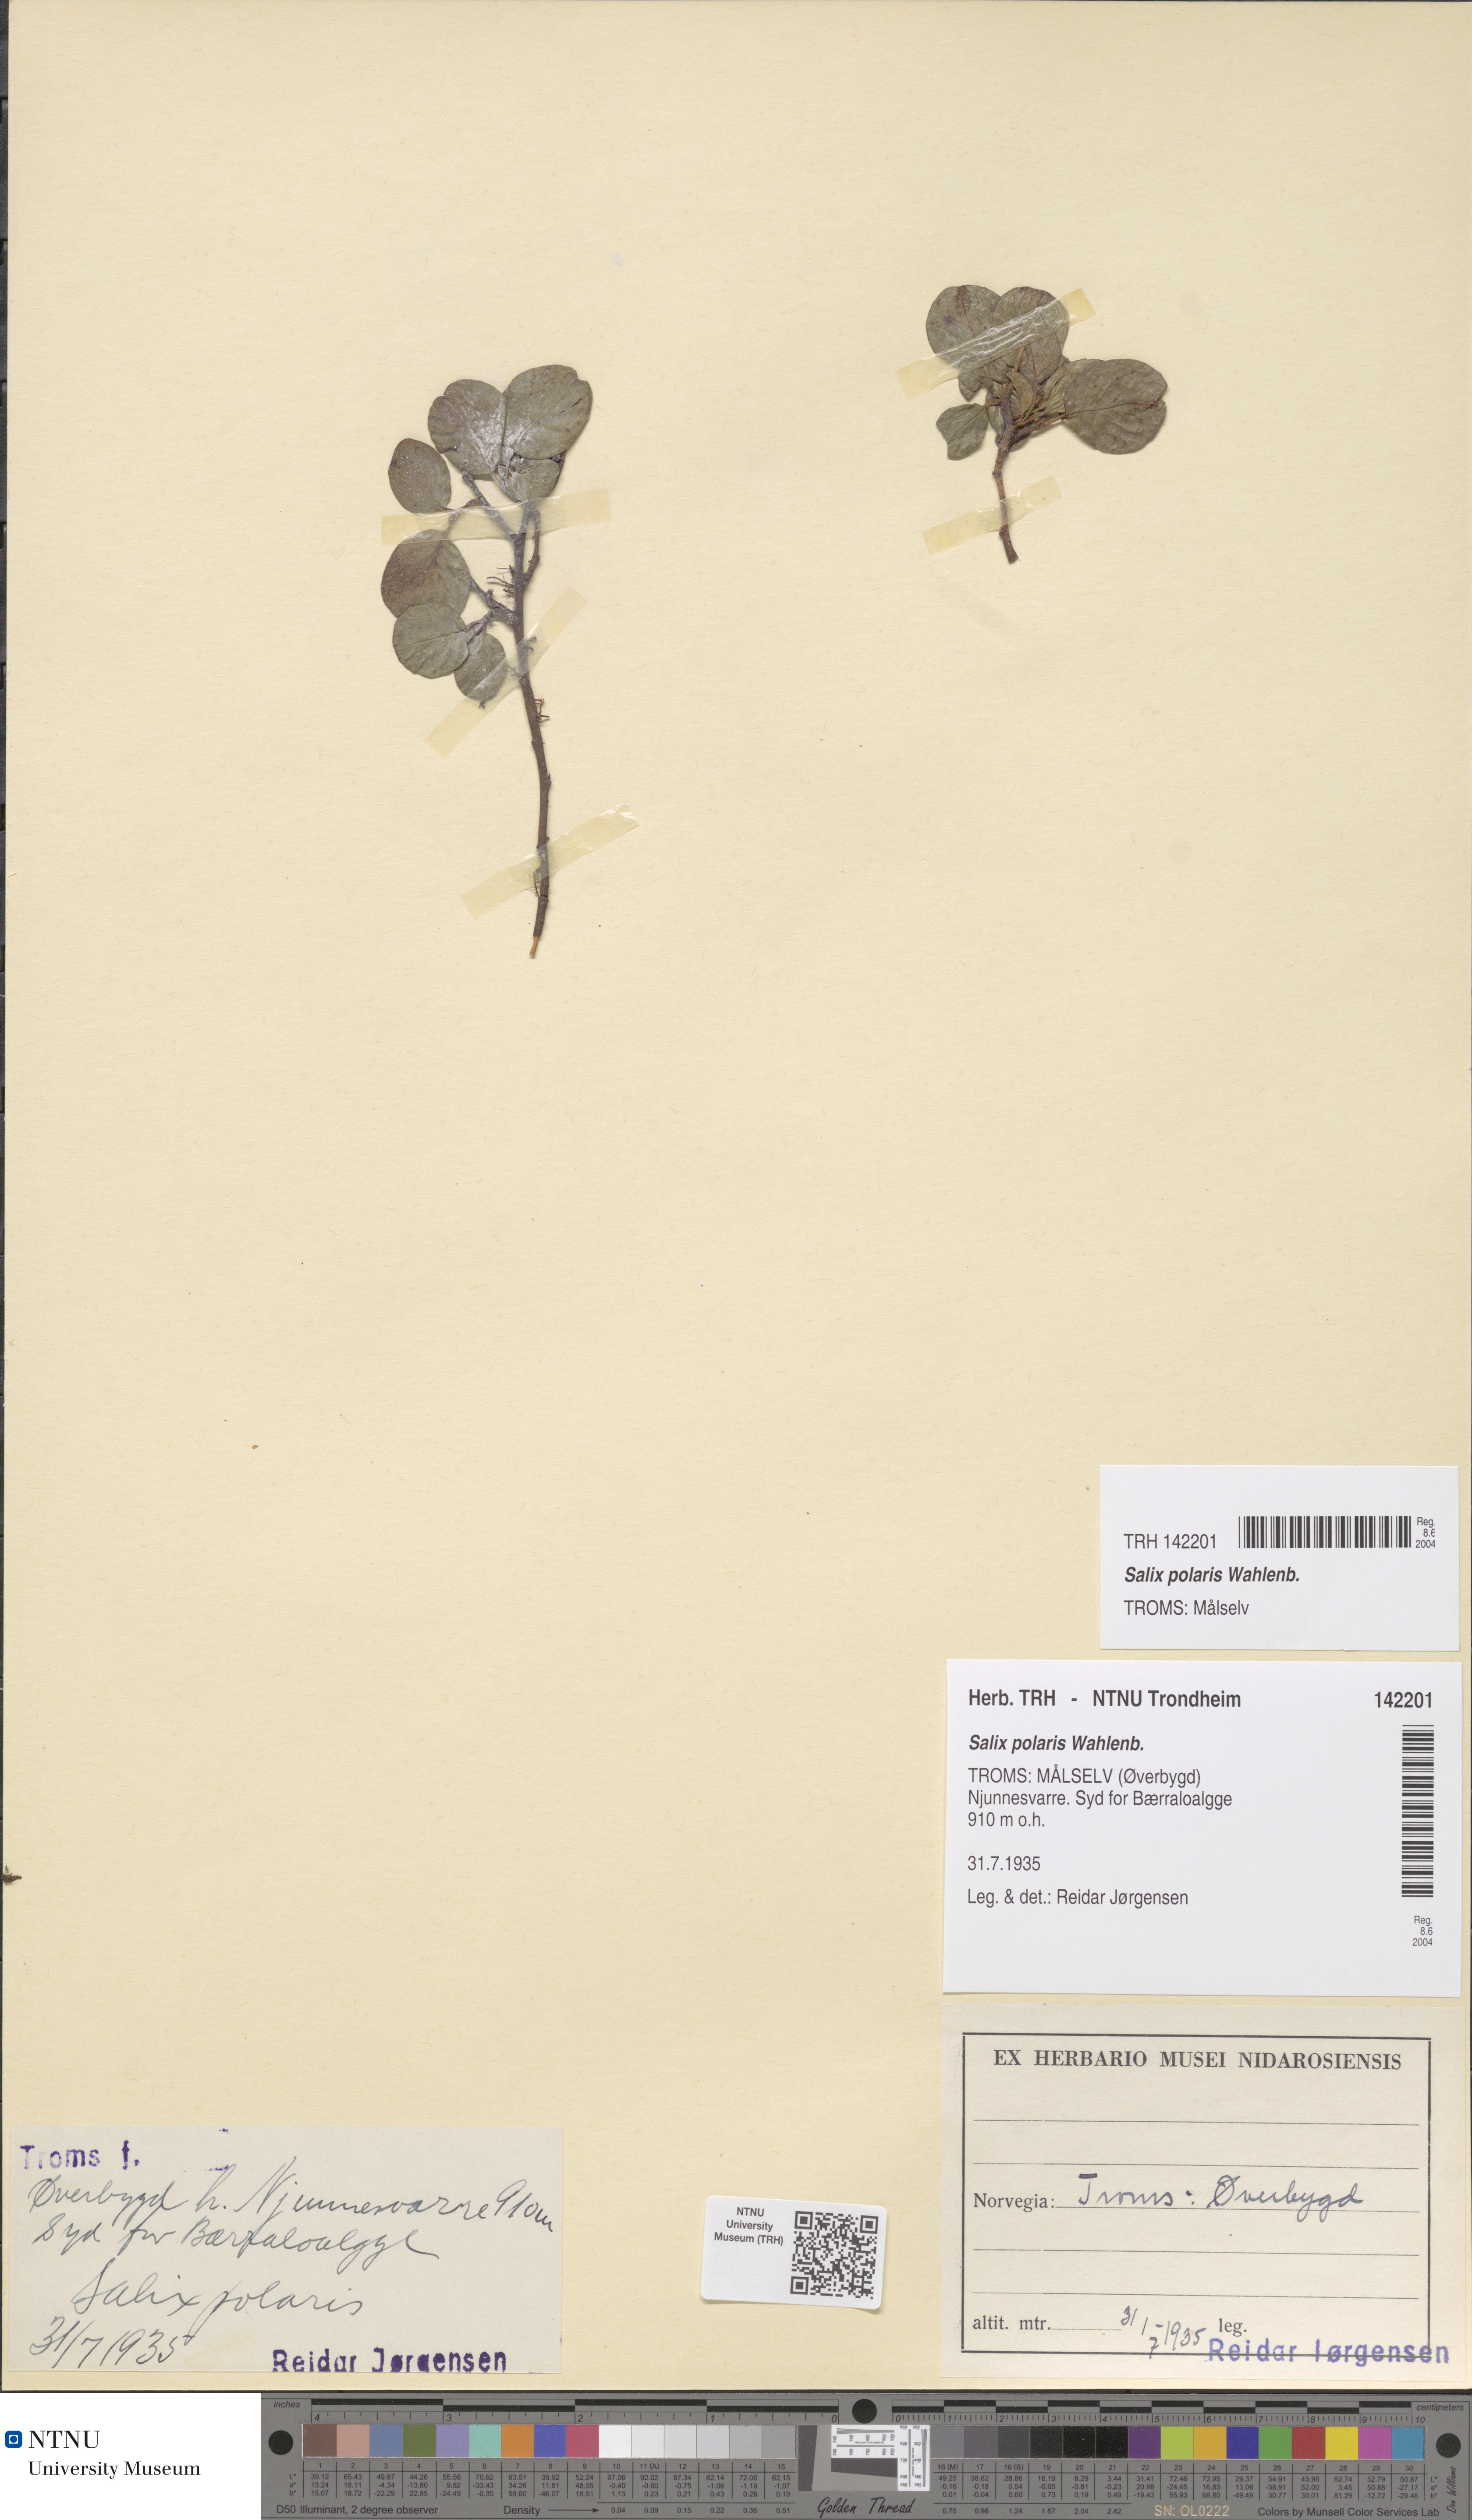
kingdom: Plantae
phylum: Tracheophyta
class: Magnoliopsida
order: Malpighiales
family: Salicaceae
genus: Salix
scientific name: Salix polaris
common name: Polar willow
